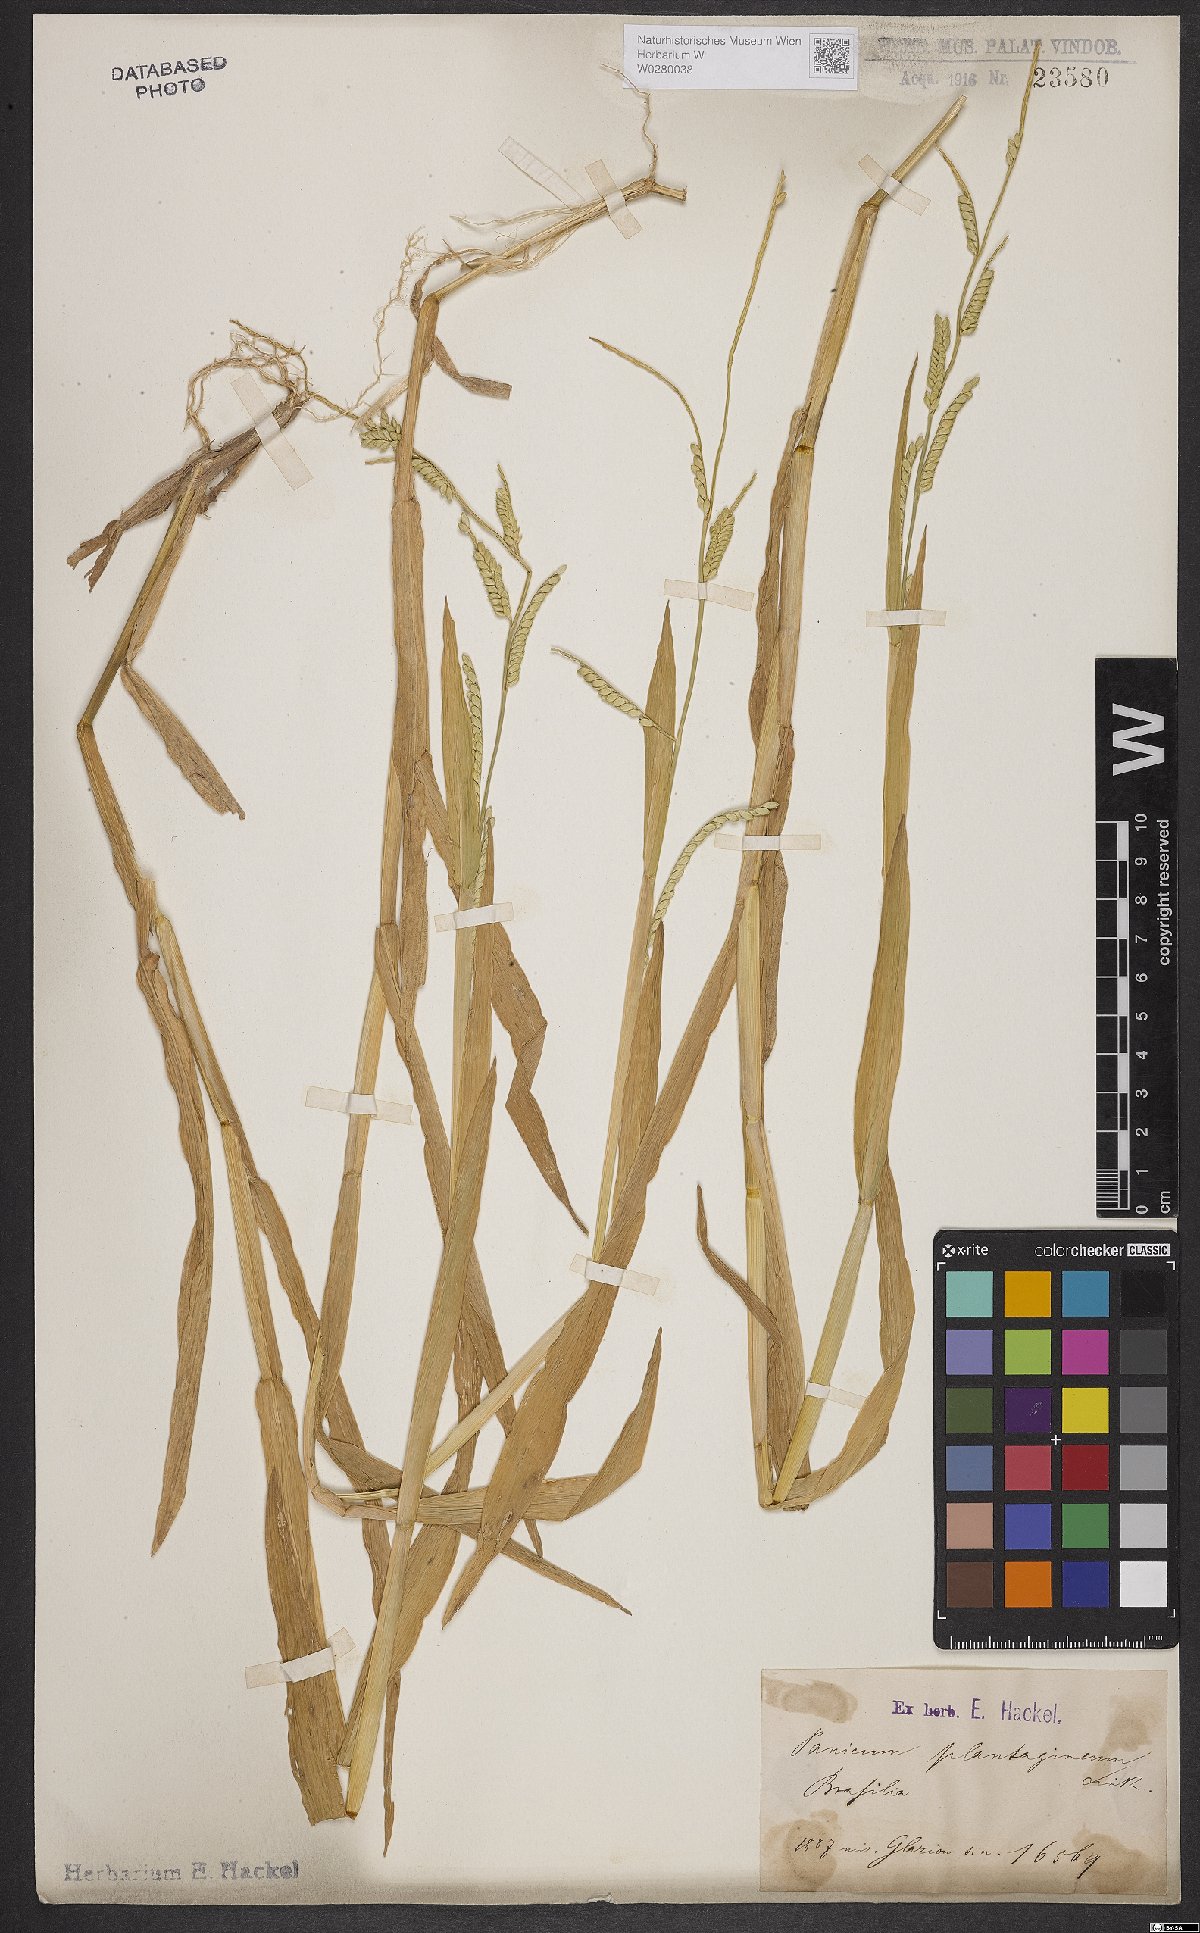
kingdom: Plantae
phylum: Tracheophyta
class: Liliopsida
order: Poales
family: Poaceae
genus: Urochloa
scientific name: Urochloa plantaginea
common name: Plantain signalgrass
